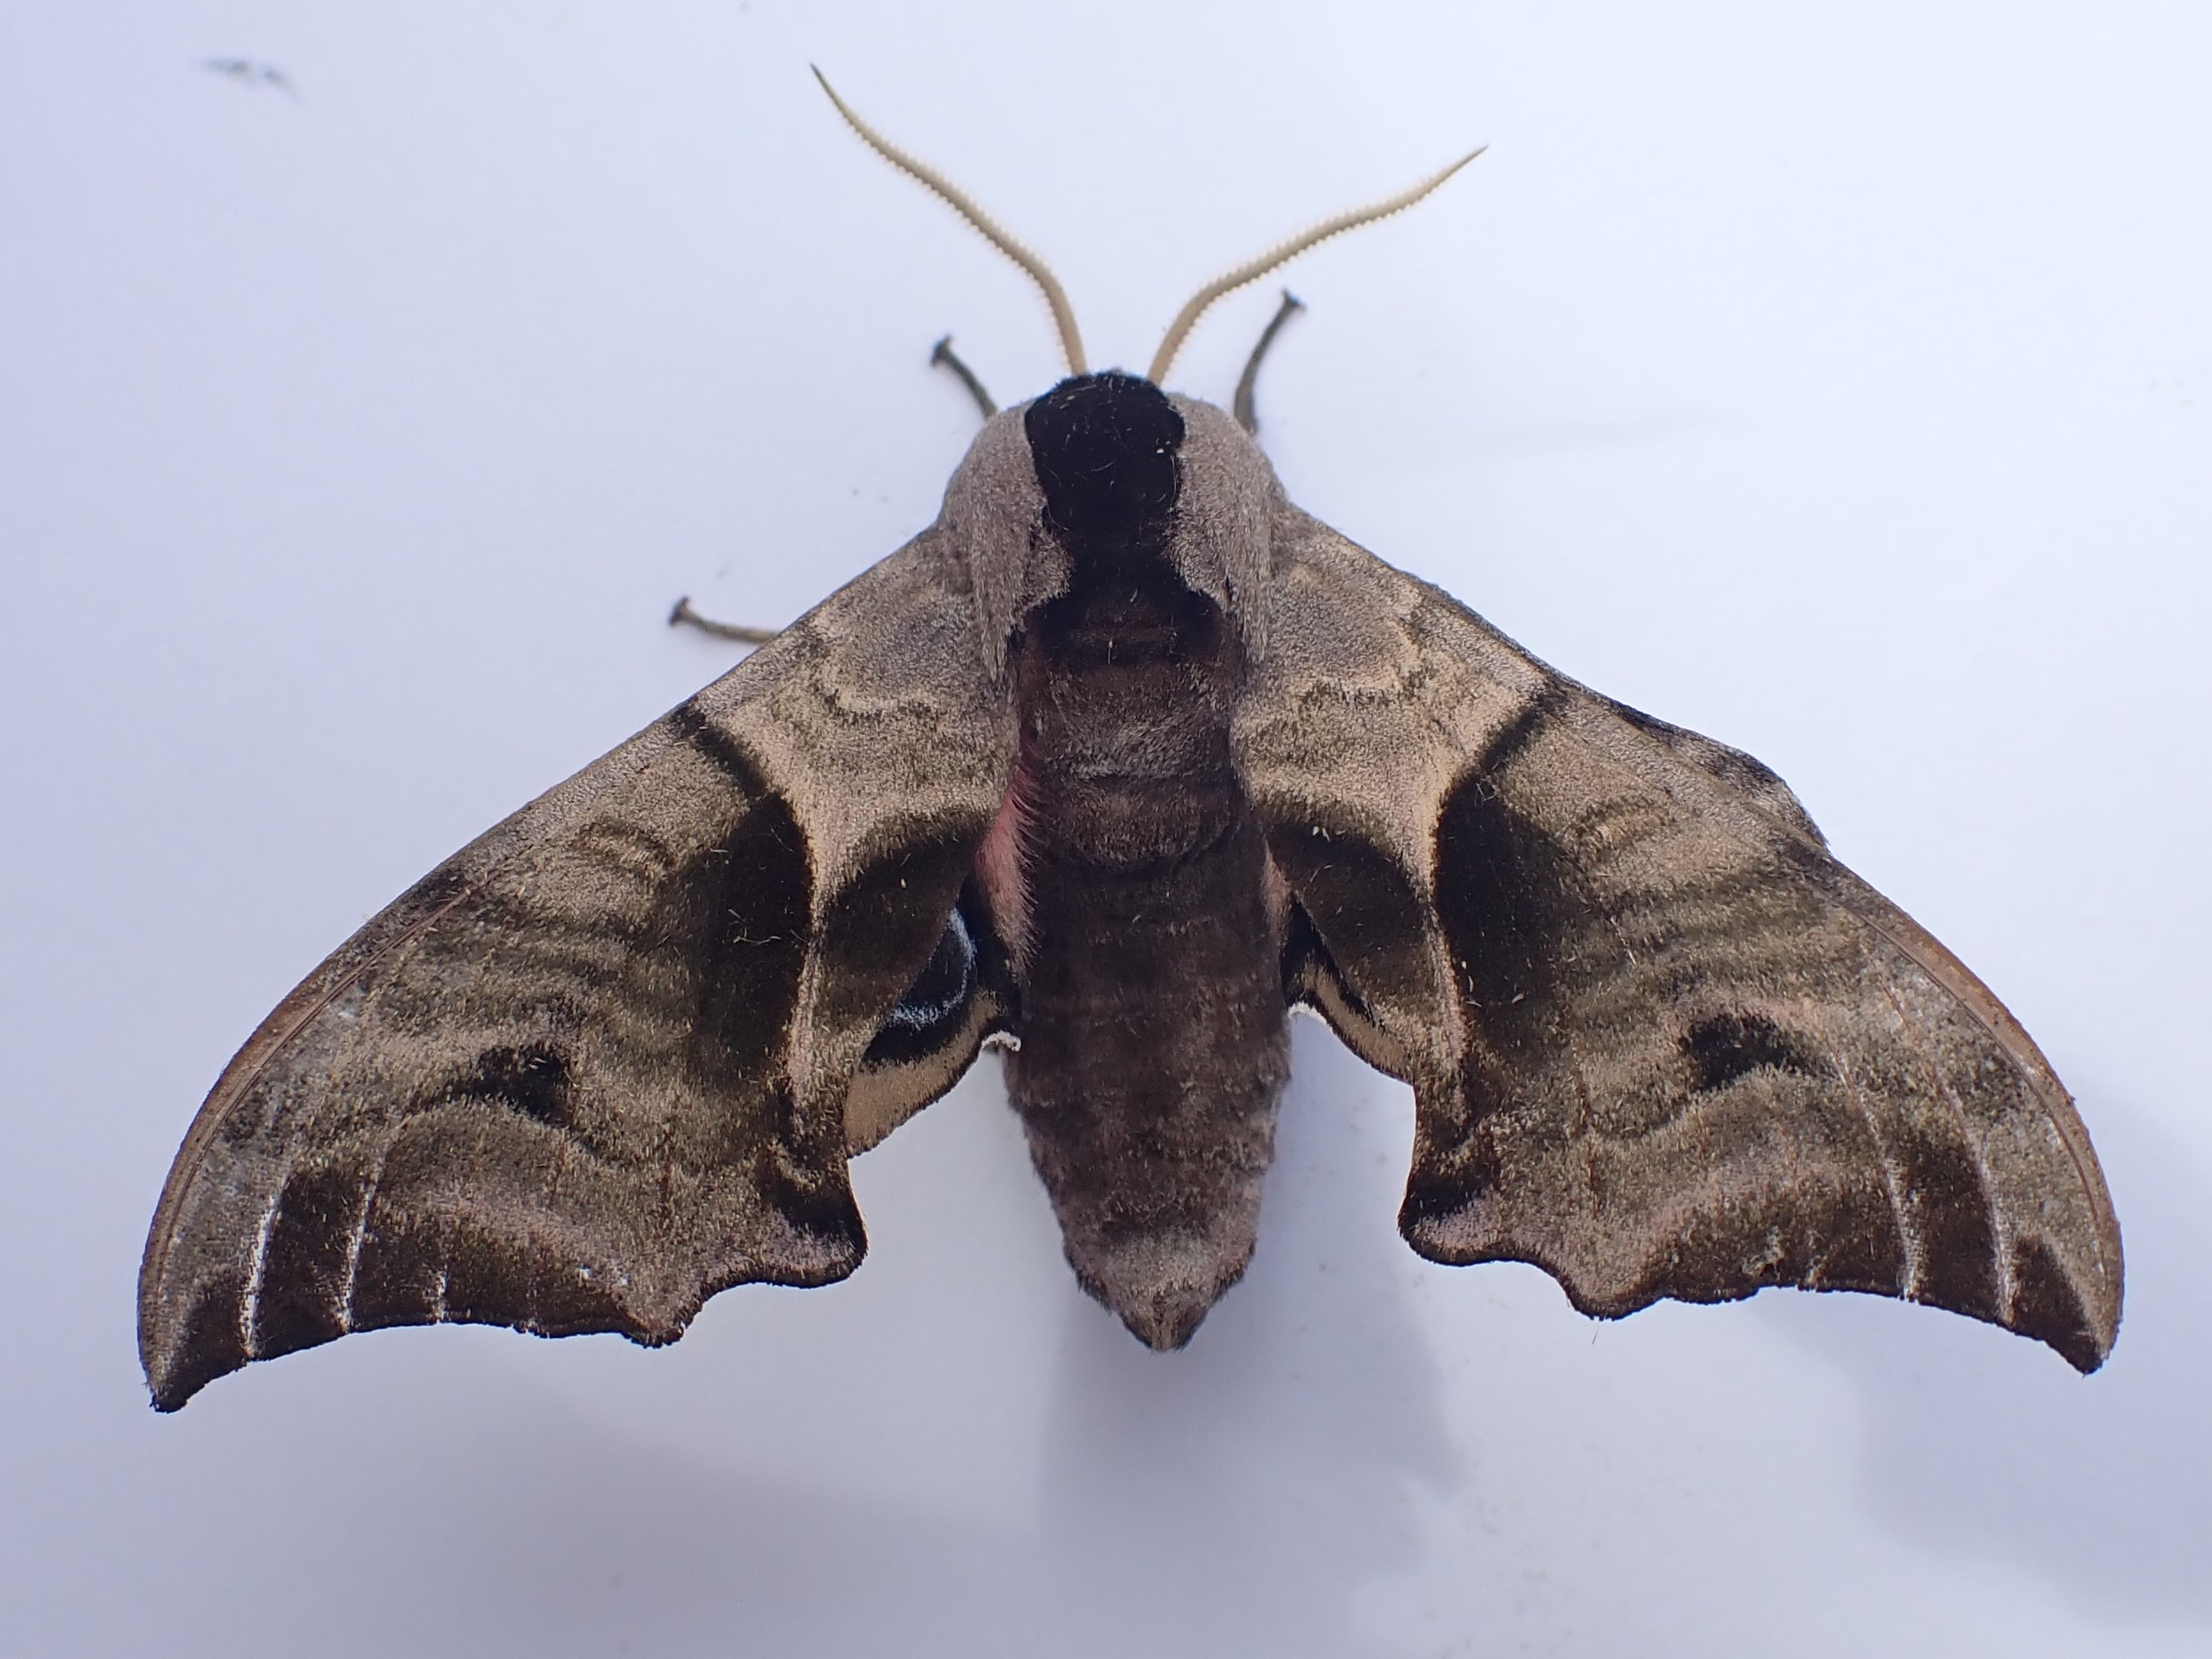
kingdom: Animalia
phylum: Arthropoda
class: Insecta
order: Lepidoptera
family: Sphingidae
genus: Smerinthus
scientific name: Smerinthus ocellata
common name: Aftenpåfugleøje
